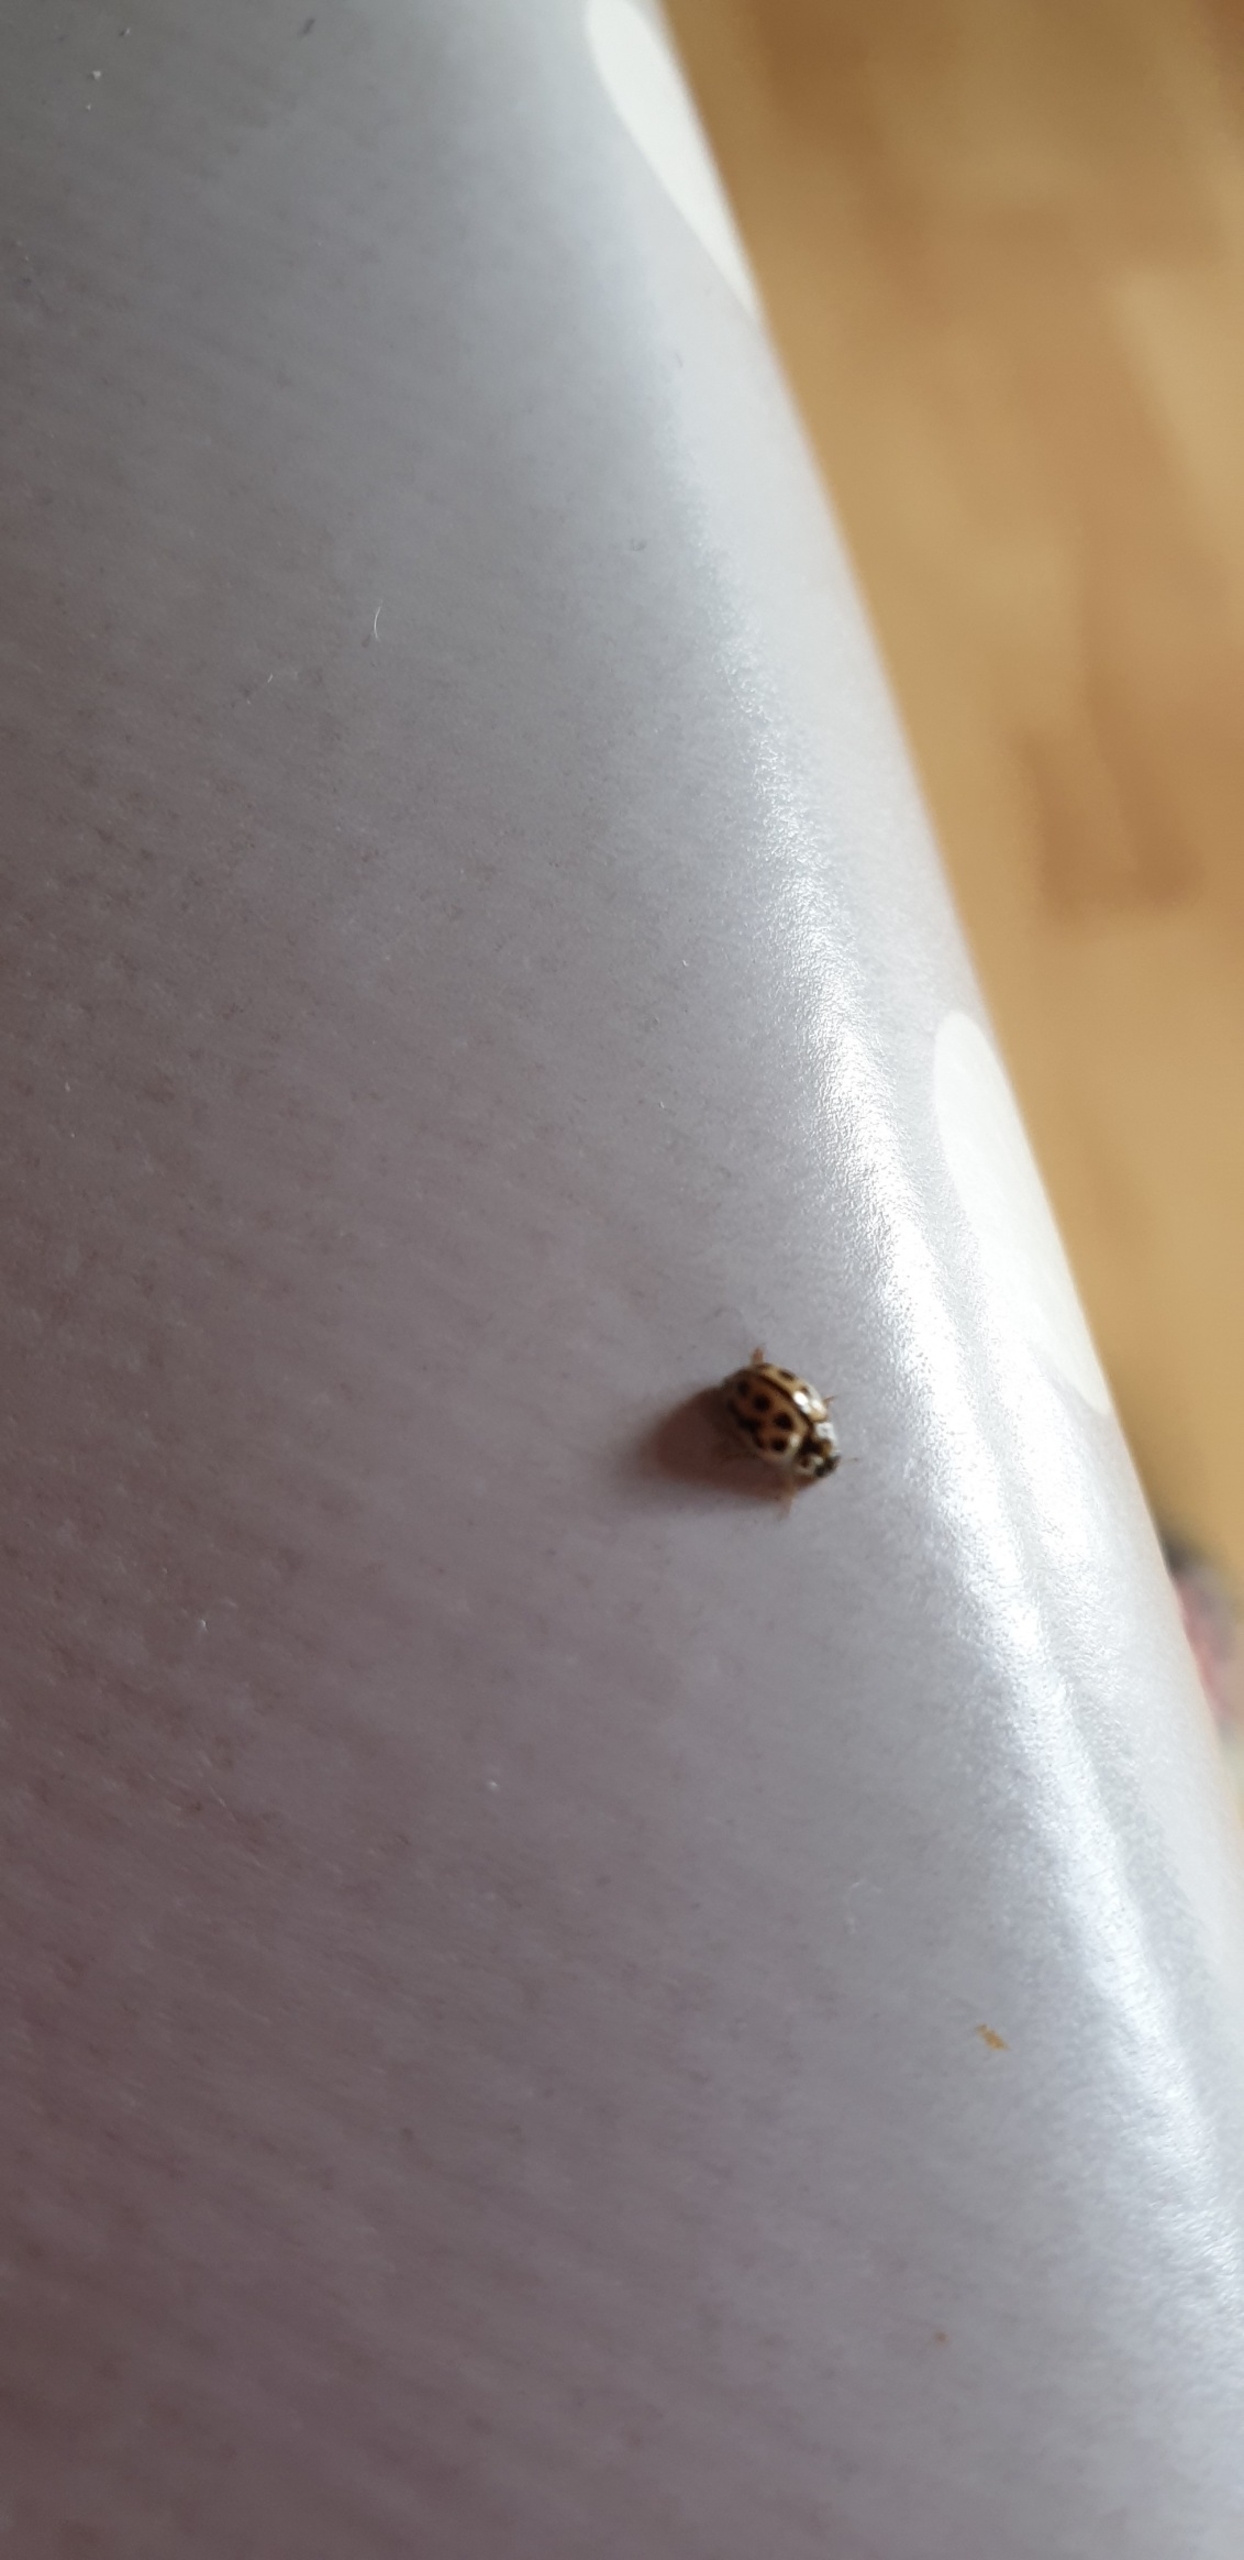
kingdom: Animalia
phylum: Arthropoda
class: Insecta
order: Coleoptera
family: Coccinellidae
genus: Tytthaspis
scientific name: Tytthaspis sedecimpunctata
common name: Sekstenprikket mariehøne
